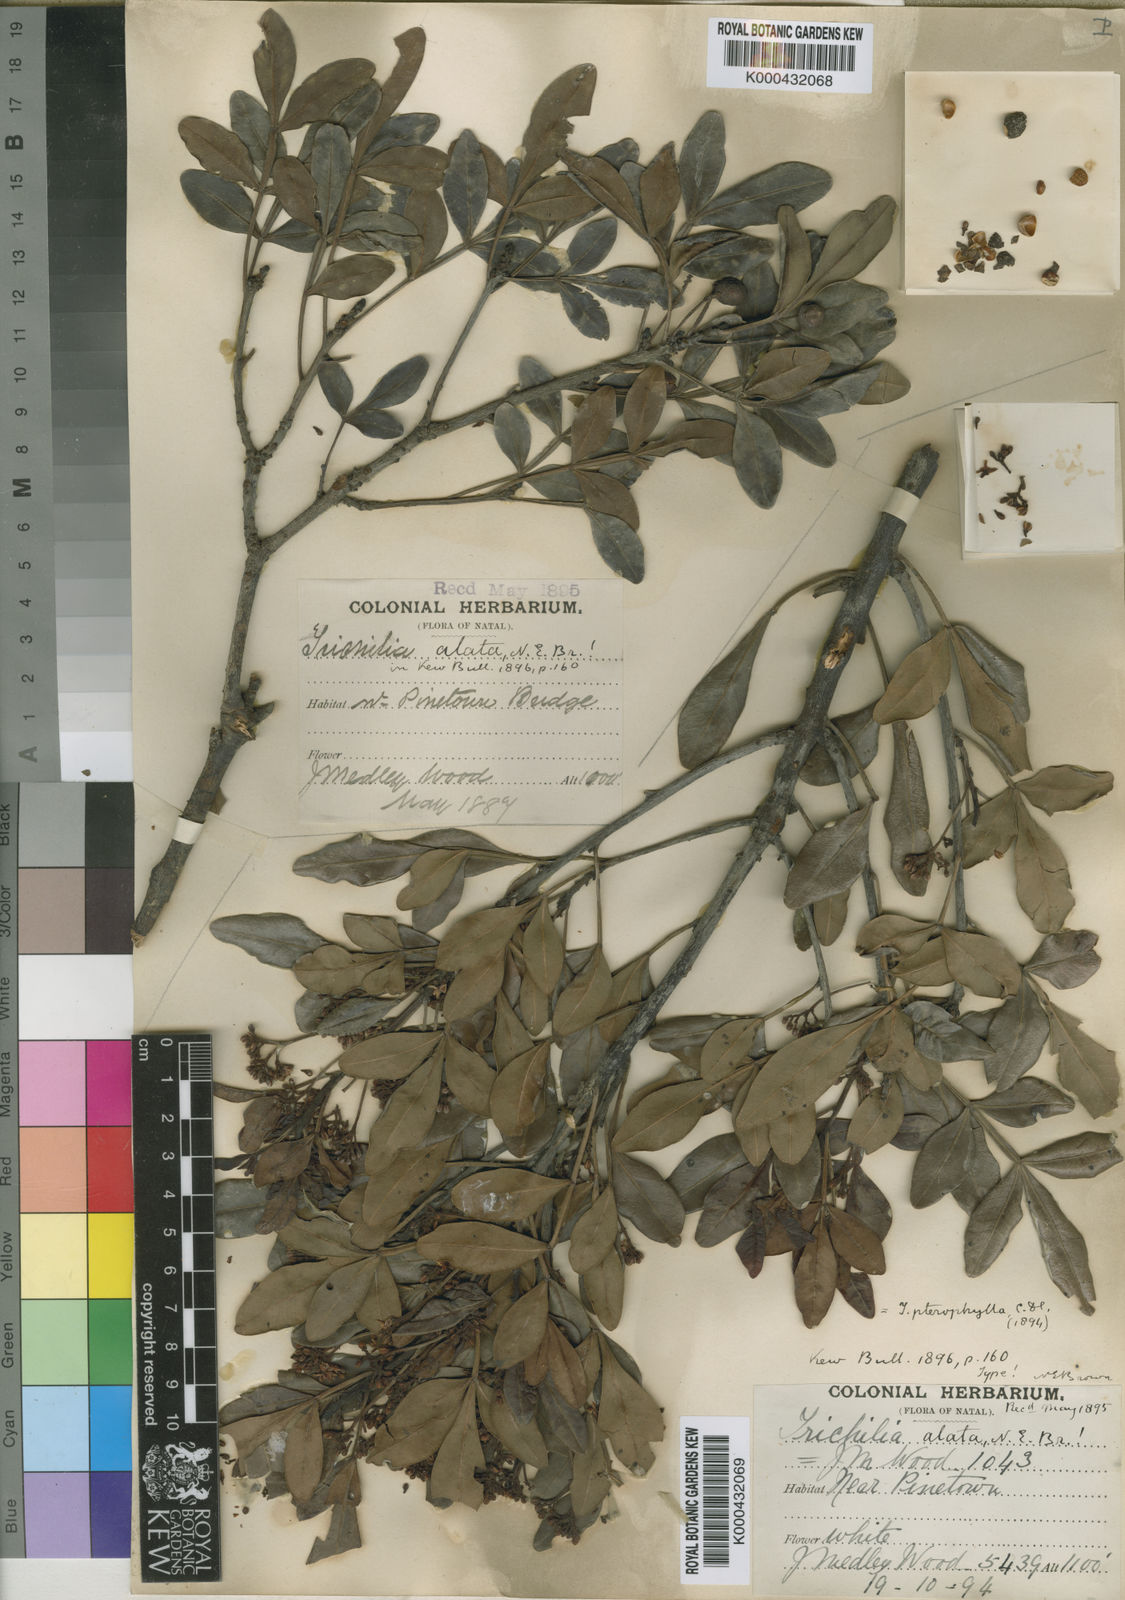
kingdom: Plantae
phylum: Tracheophyta
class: Magnoliopsida
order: Sapindales
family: Meliaceae
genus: Ekebergia
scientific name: Ekebergia pterophylla
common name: Cape ash
